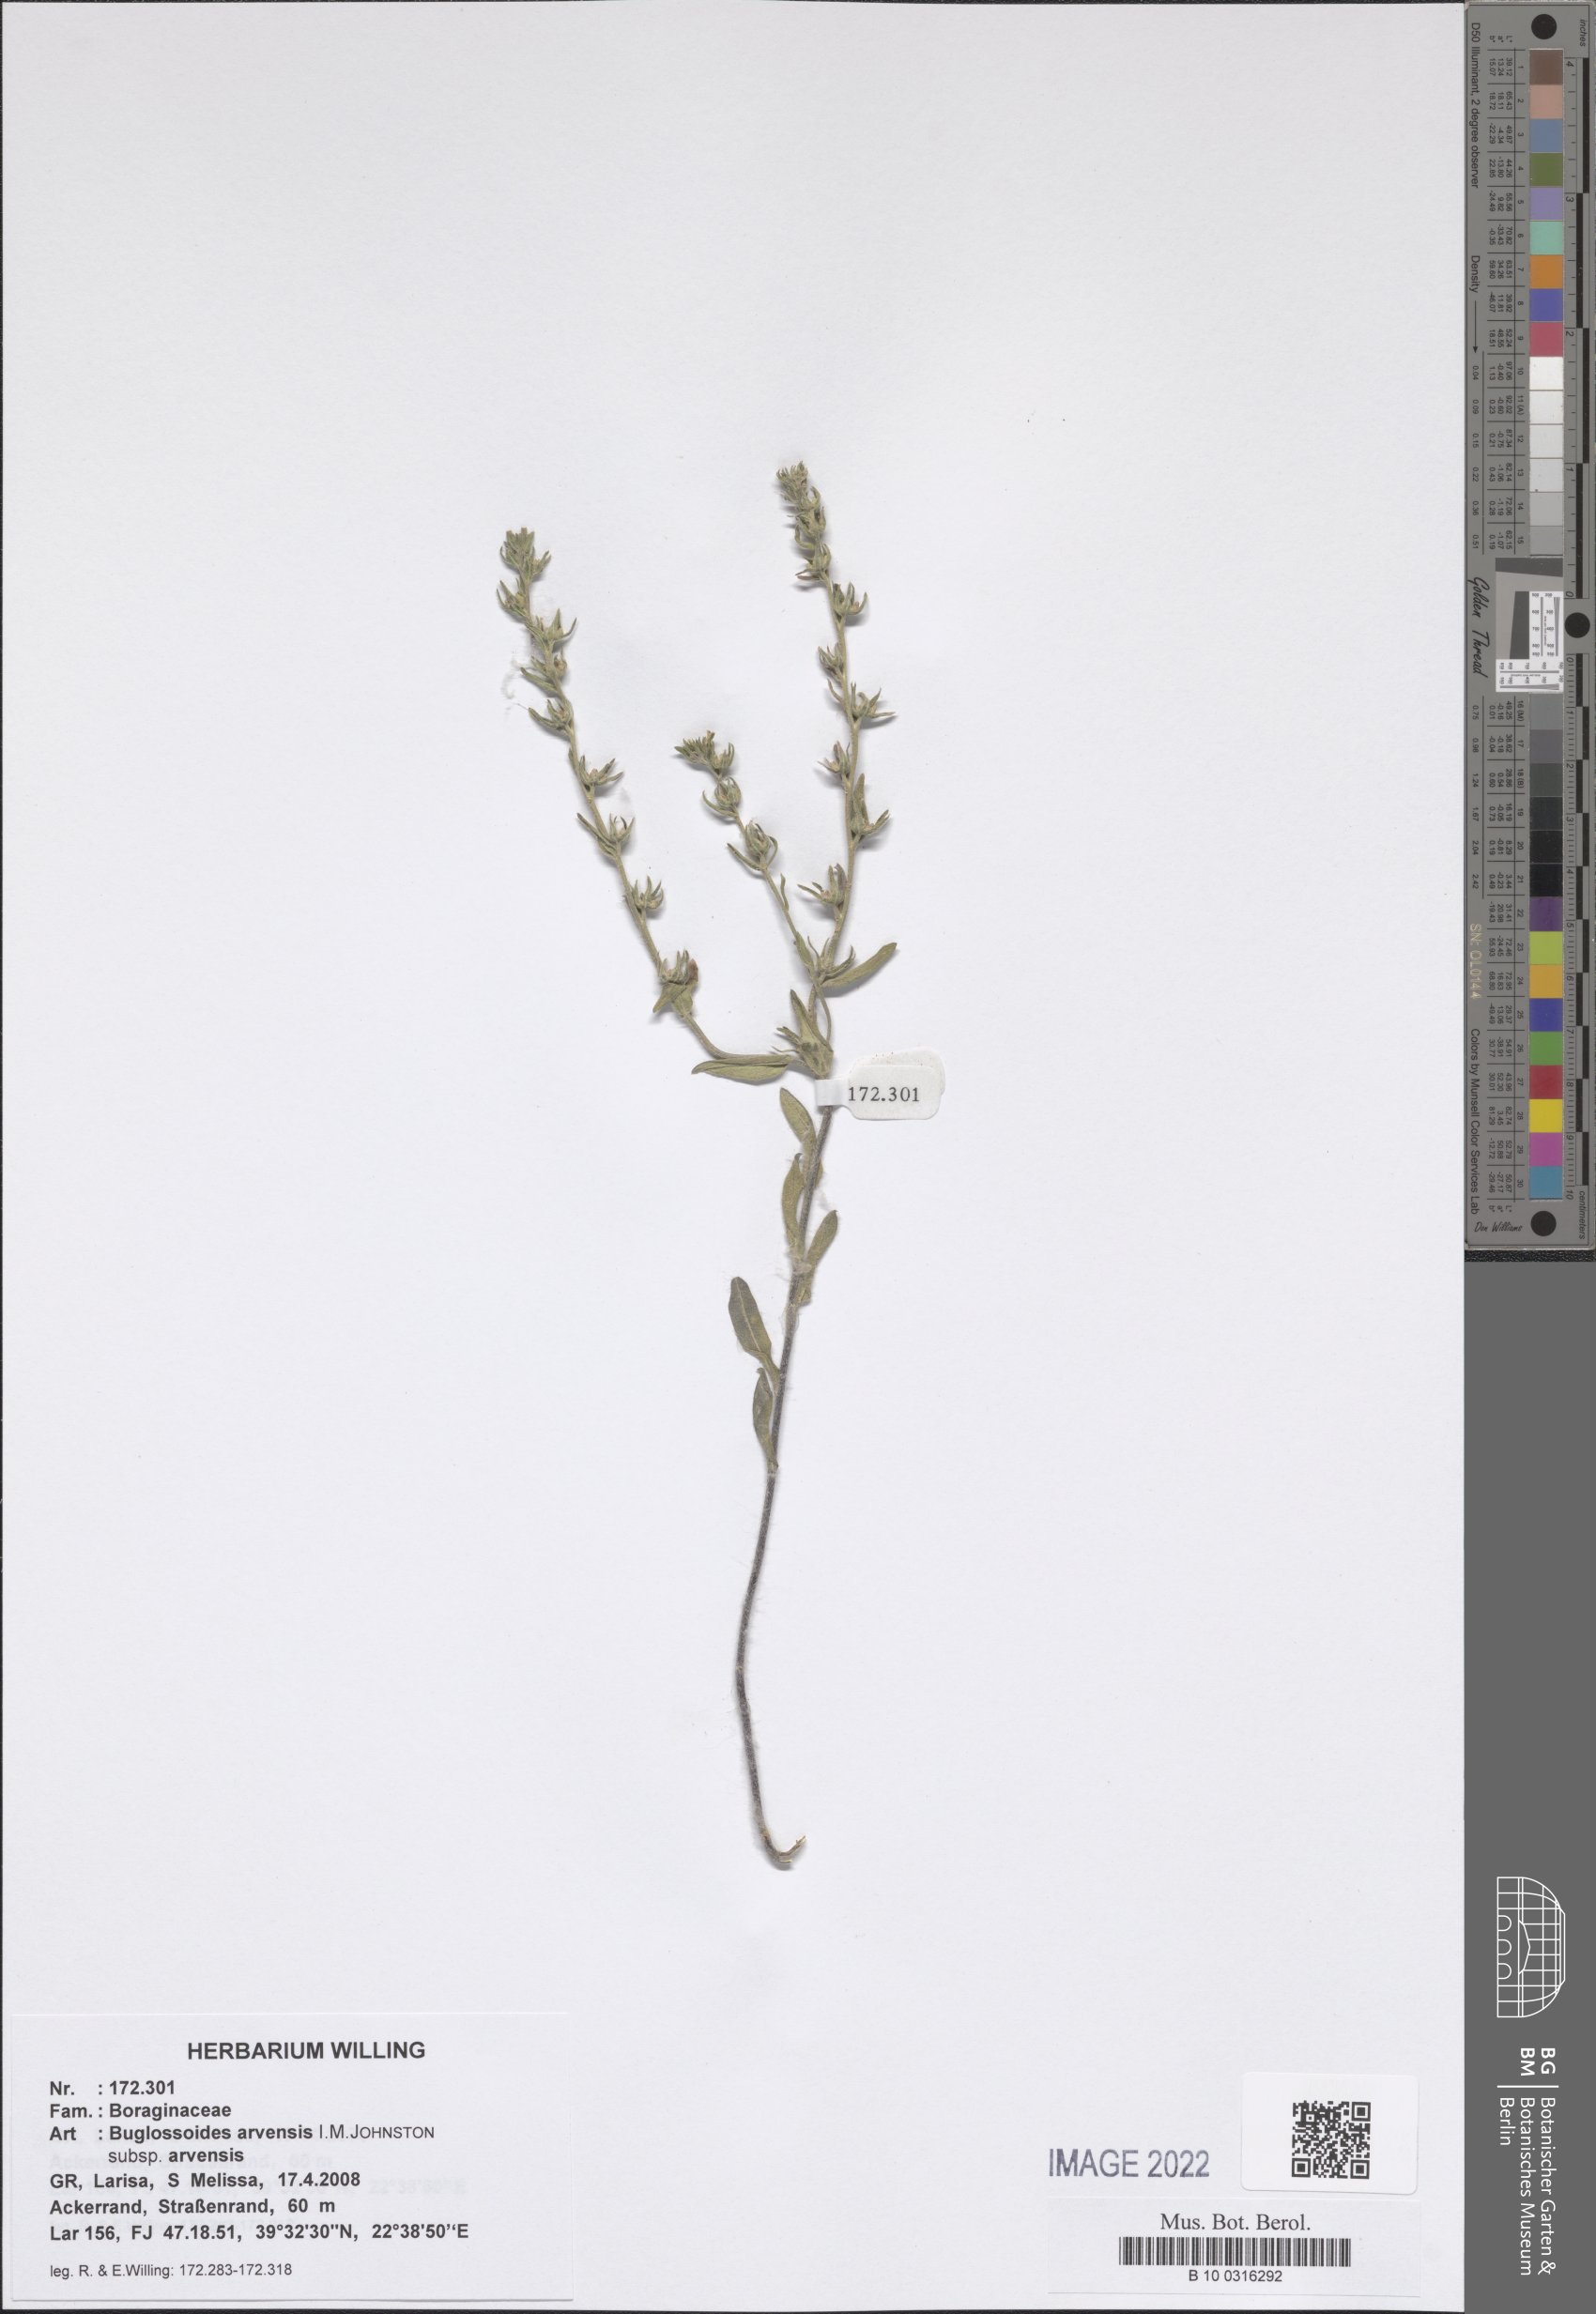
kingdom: Plantae
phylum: Tracheophyta
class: Magnoliopsida
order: Boraginales
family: Boraginaceae
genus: Buglossoides
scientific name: Buglossoides arvensis
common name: Corn gromwell
